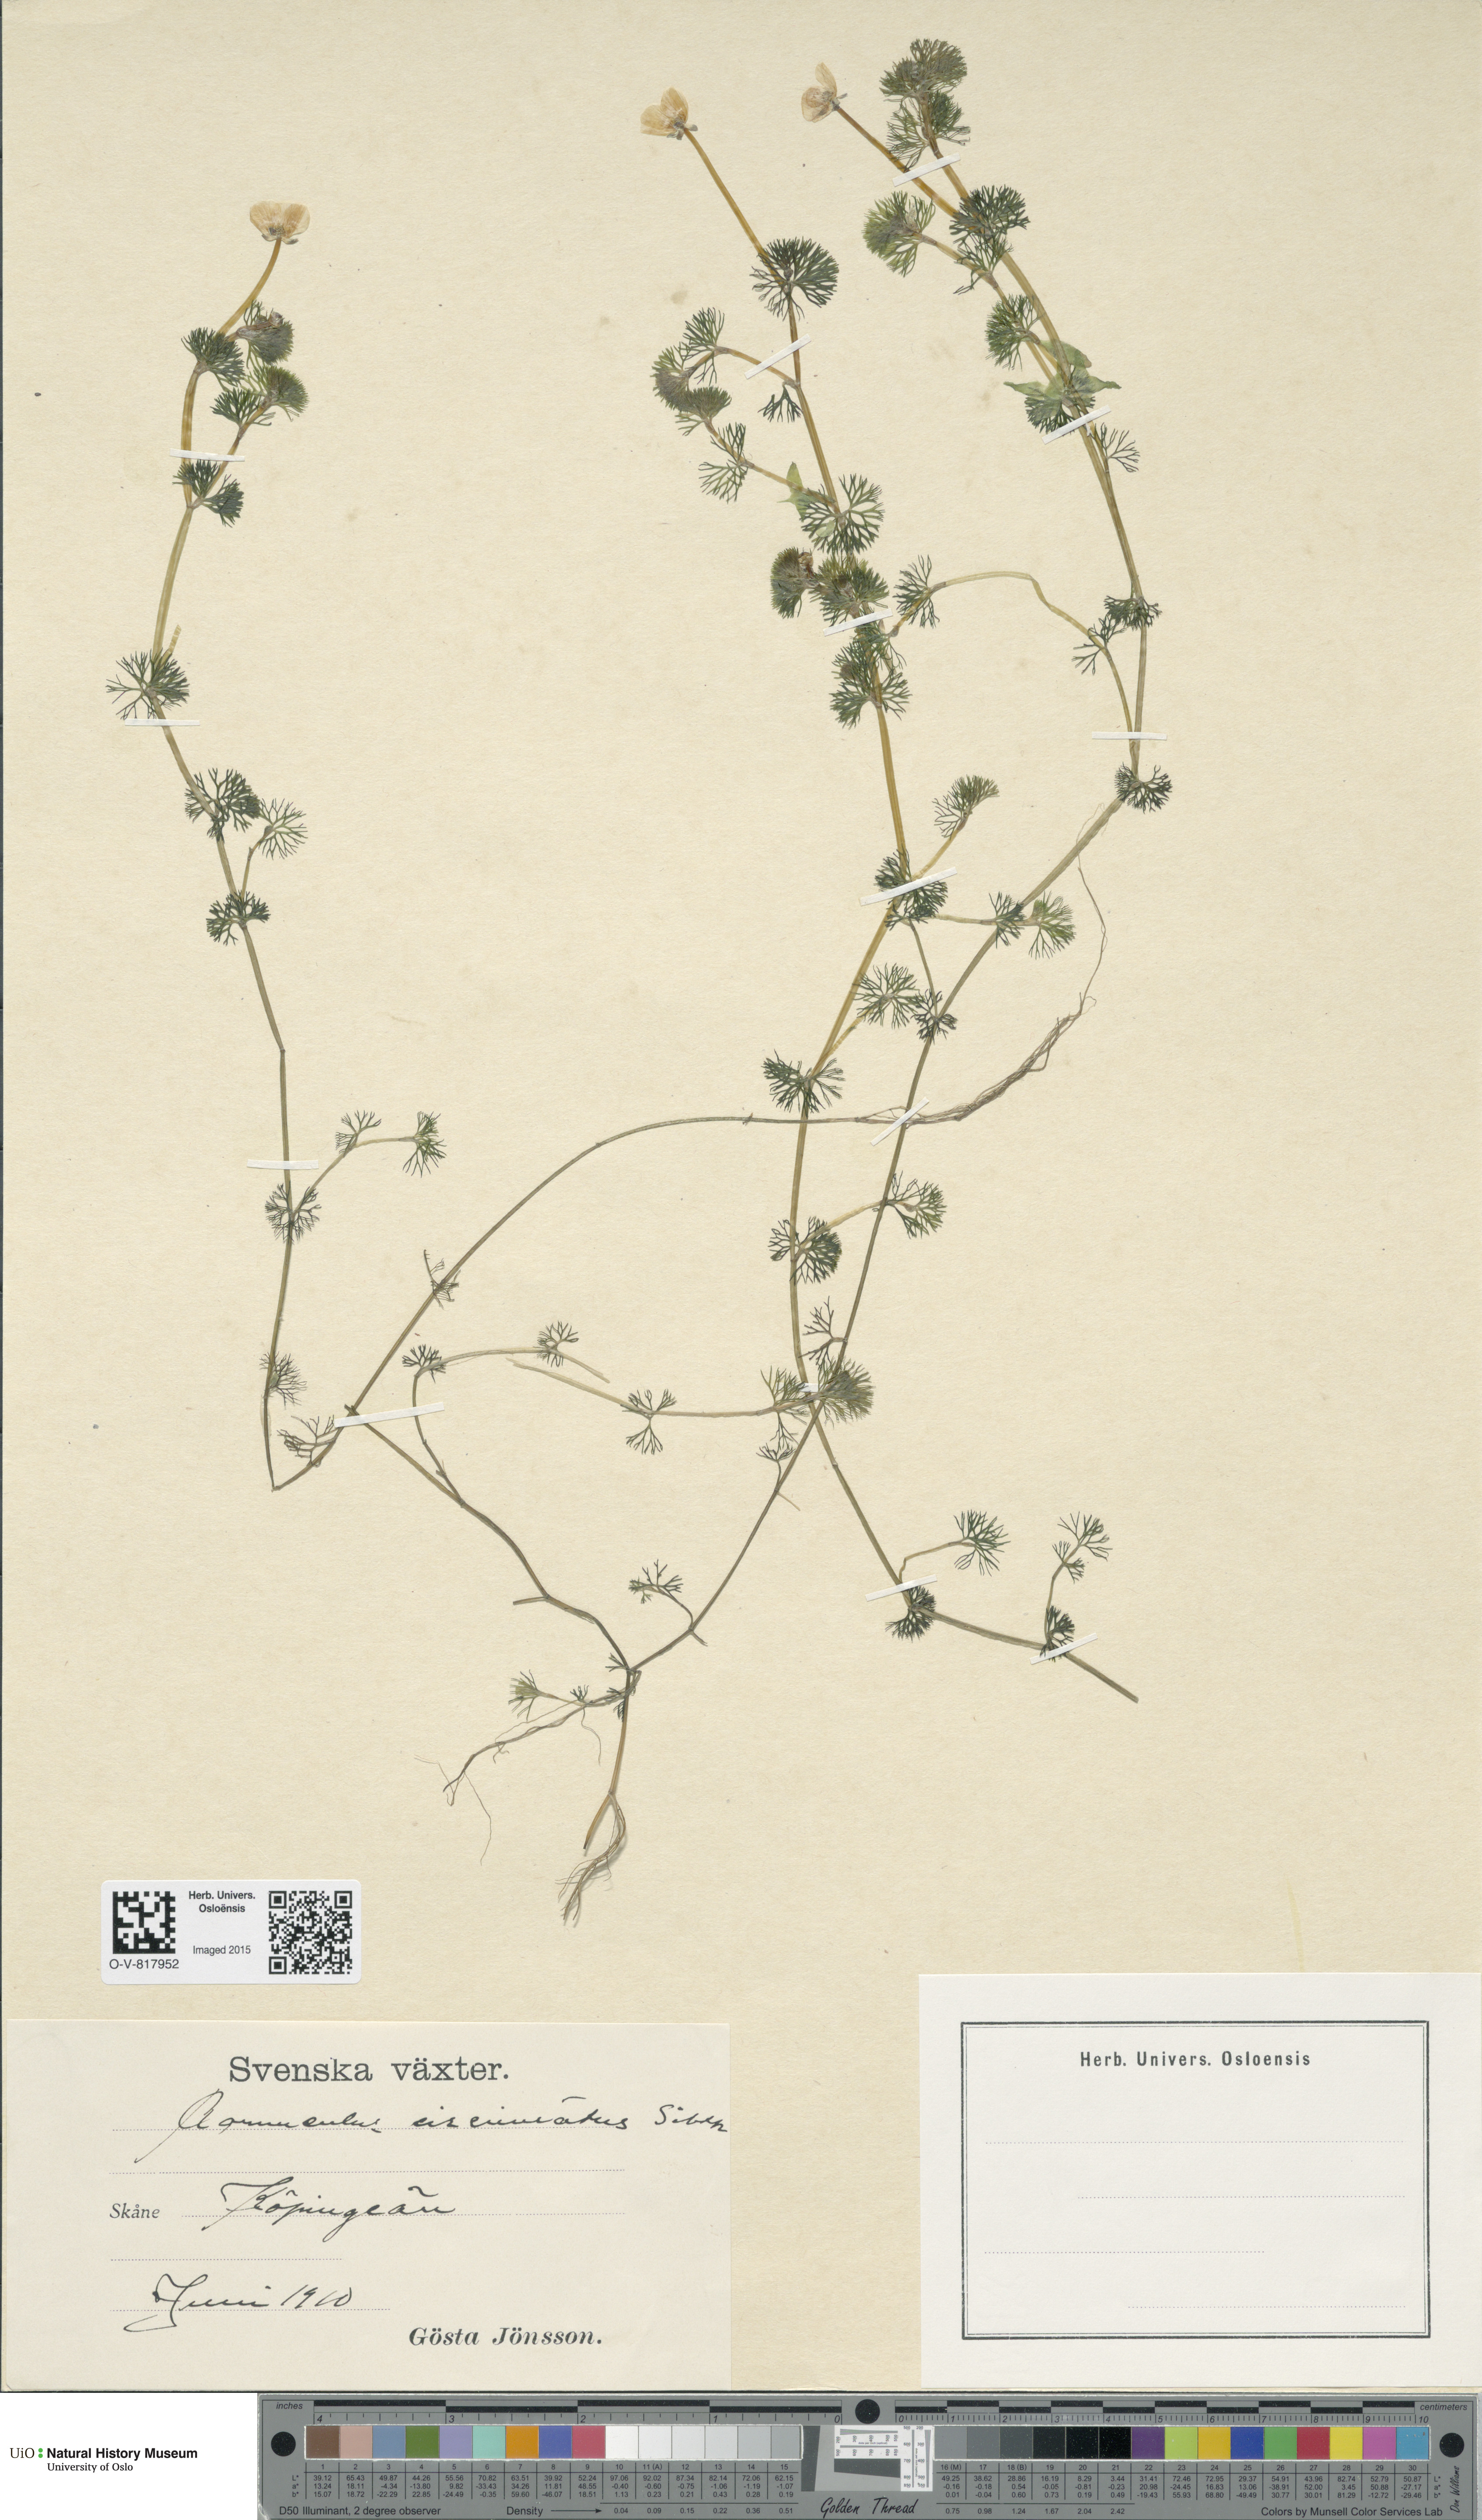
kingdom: Plantae
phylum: Tracheophyta
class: Magnoliopsida
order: Ranunculales
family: Ranunculaceae
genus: Ranunculus
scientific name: Ranunculus circinatus
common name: Fan-leaved water-crowfoot
